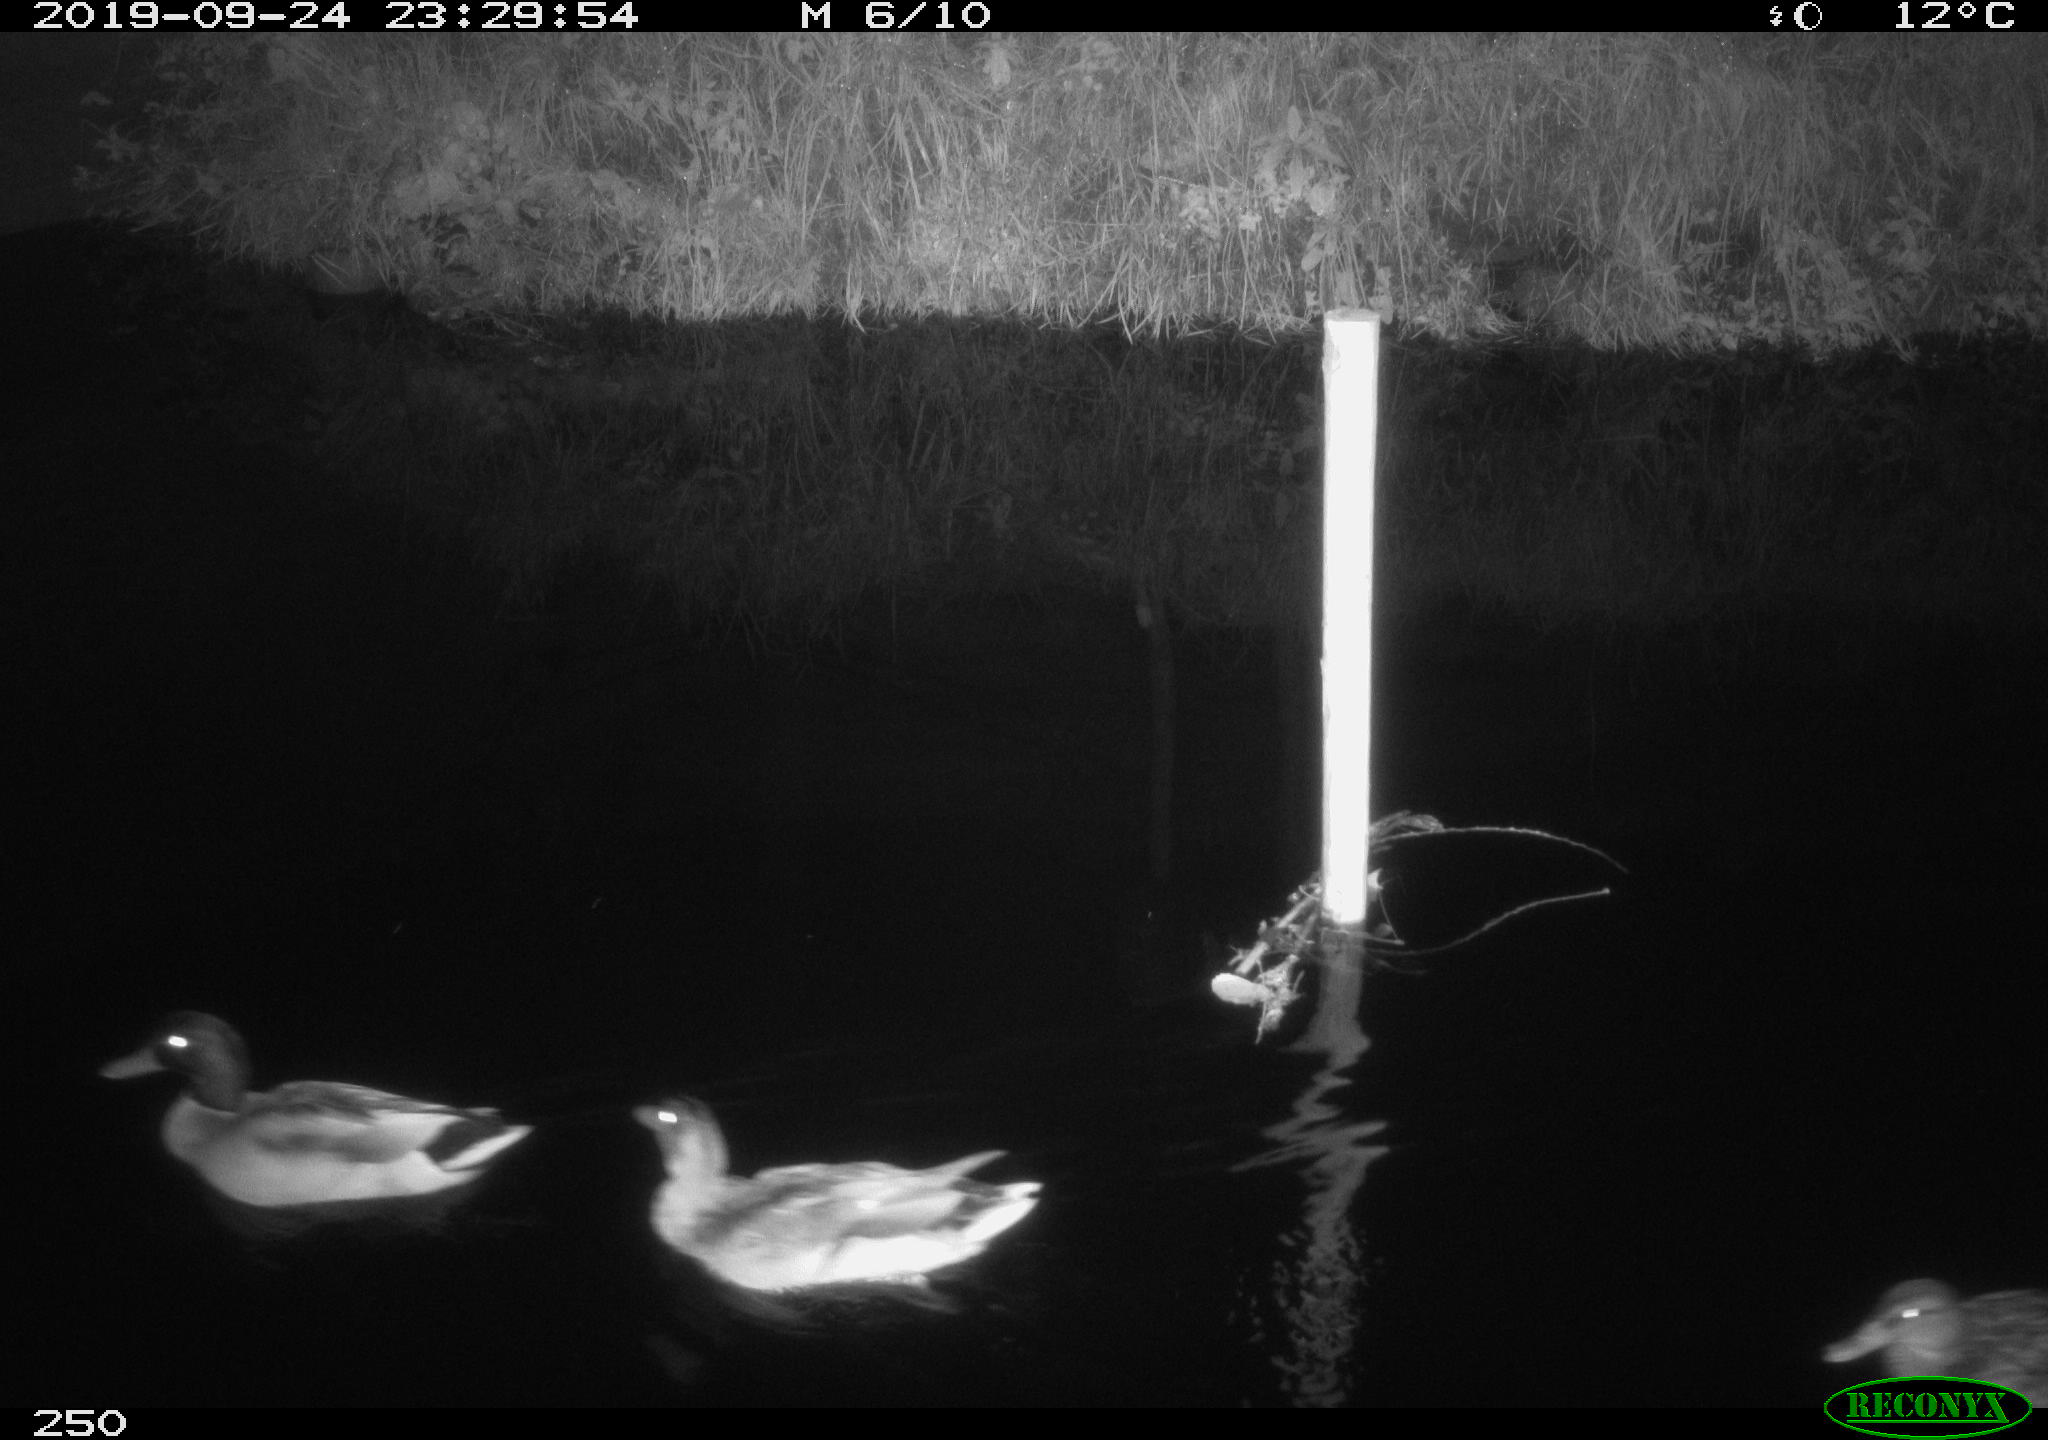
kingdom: Animalia
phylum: Chordata
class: Aves
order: Anseriformes
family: Anatidae
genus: Anas
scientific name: Anas platyrhynchos
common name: Mallard
